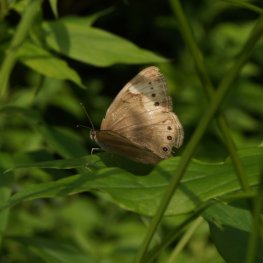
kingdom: Animalia
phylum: Arthropoda
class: Insecta
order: Lepidoptera
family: Nymphalidae
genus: Lethe
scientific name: Lethe eurydice
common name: Eyed Brown
